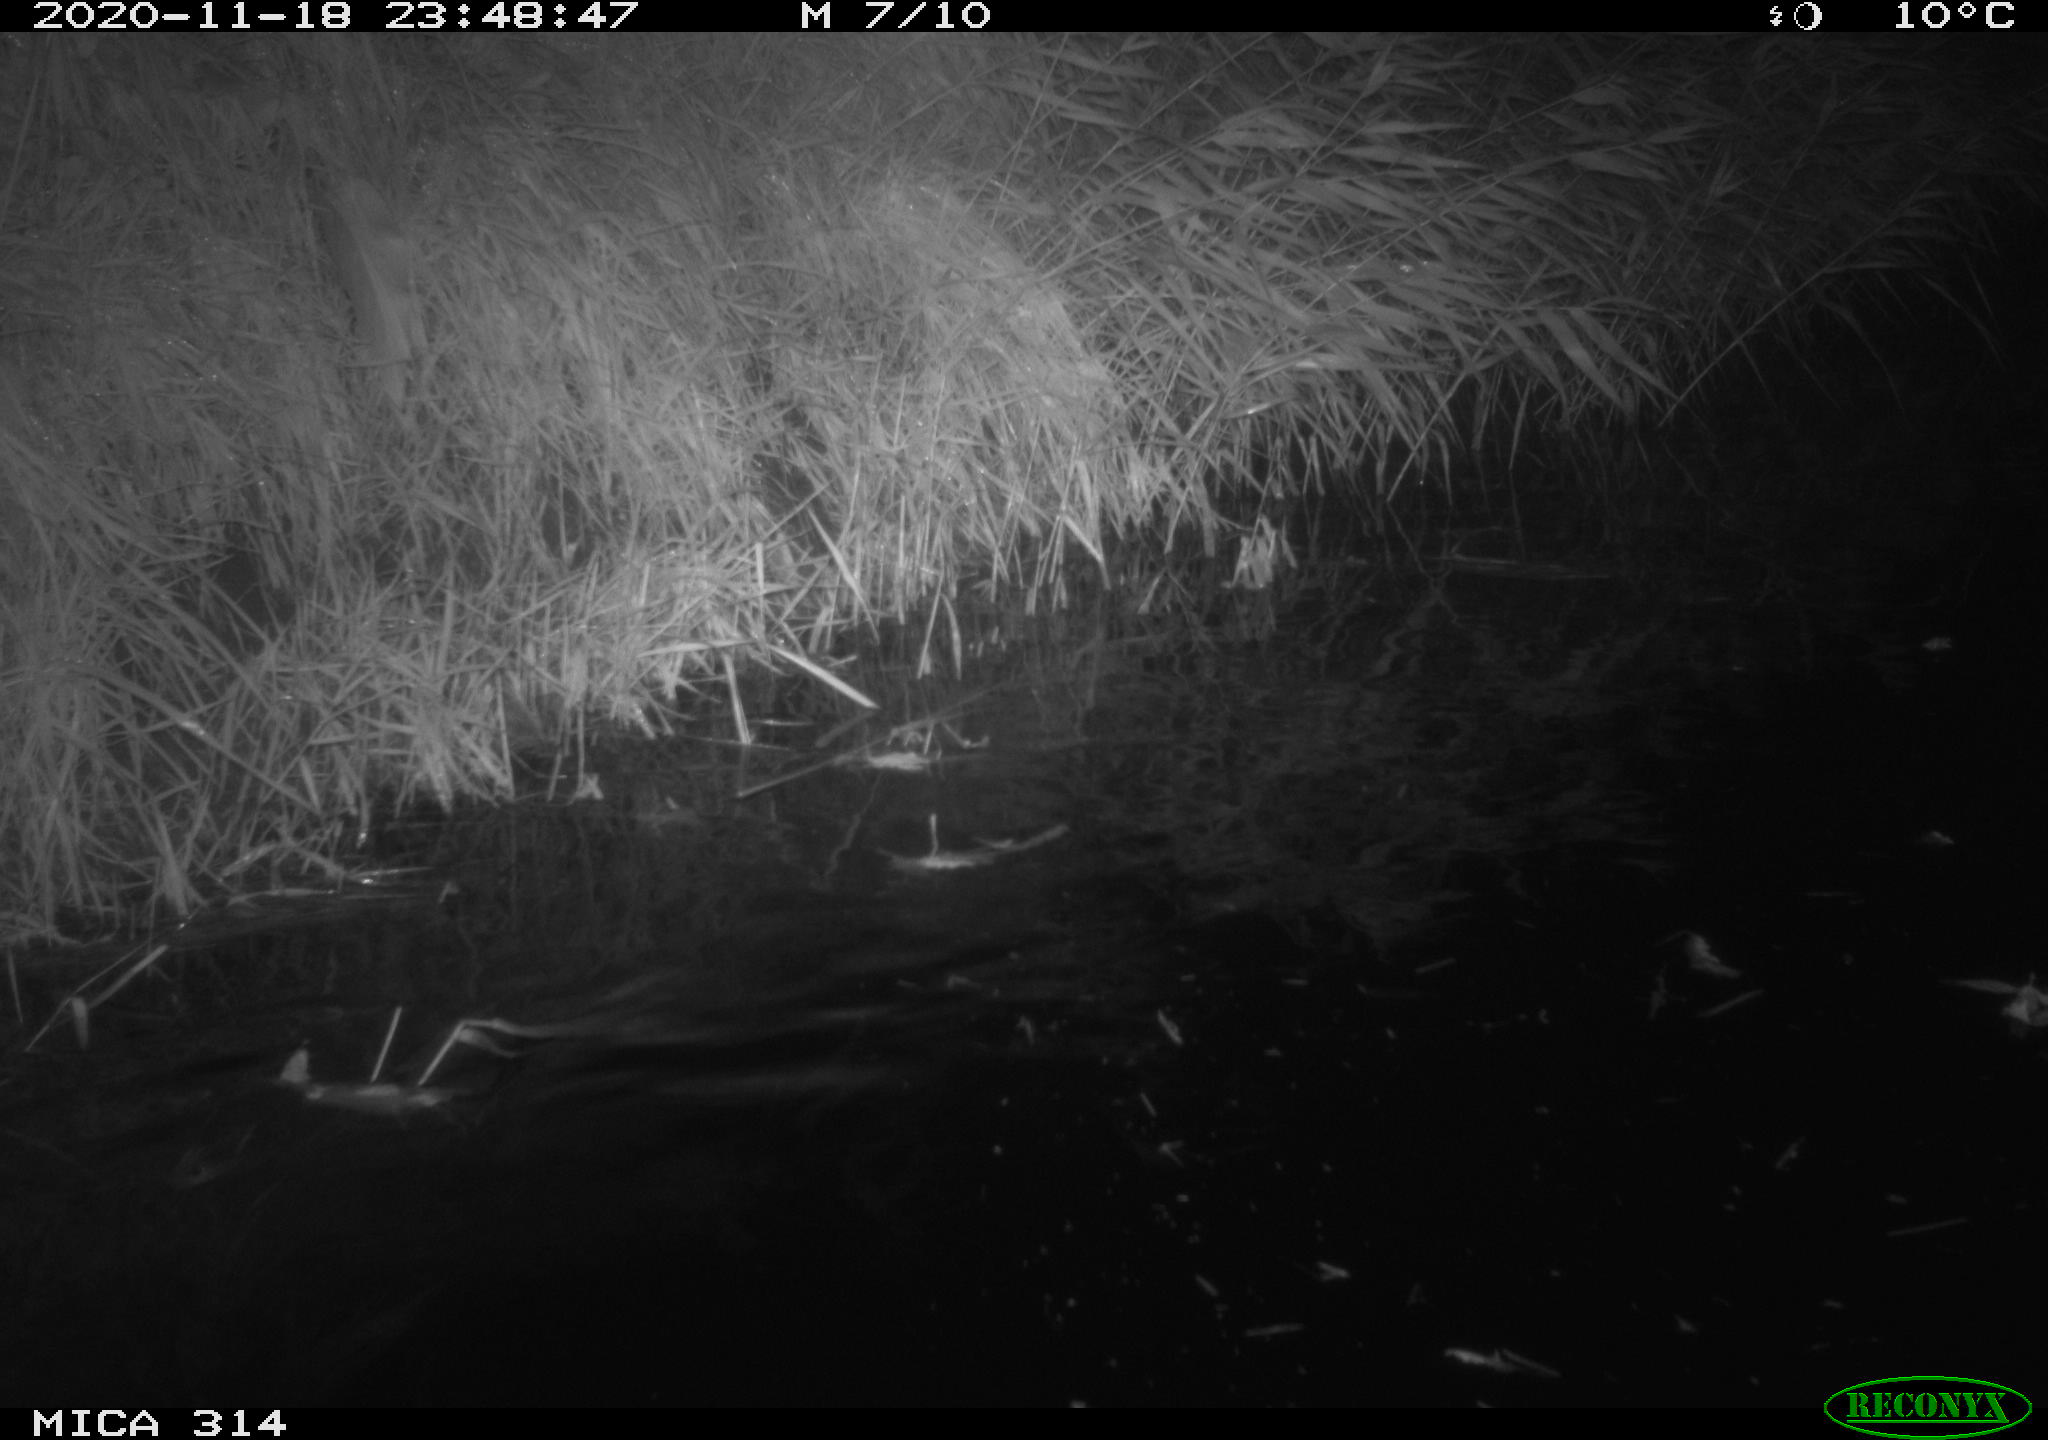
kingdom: Animalia
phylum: Chordata
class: Mammalia
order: Rodentia
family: Muridae
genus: Rattus
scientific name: Rattus norvegicus
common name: Brown rat
